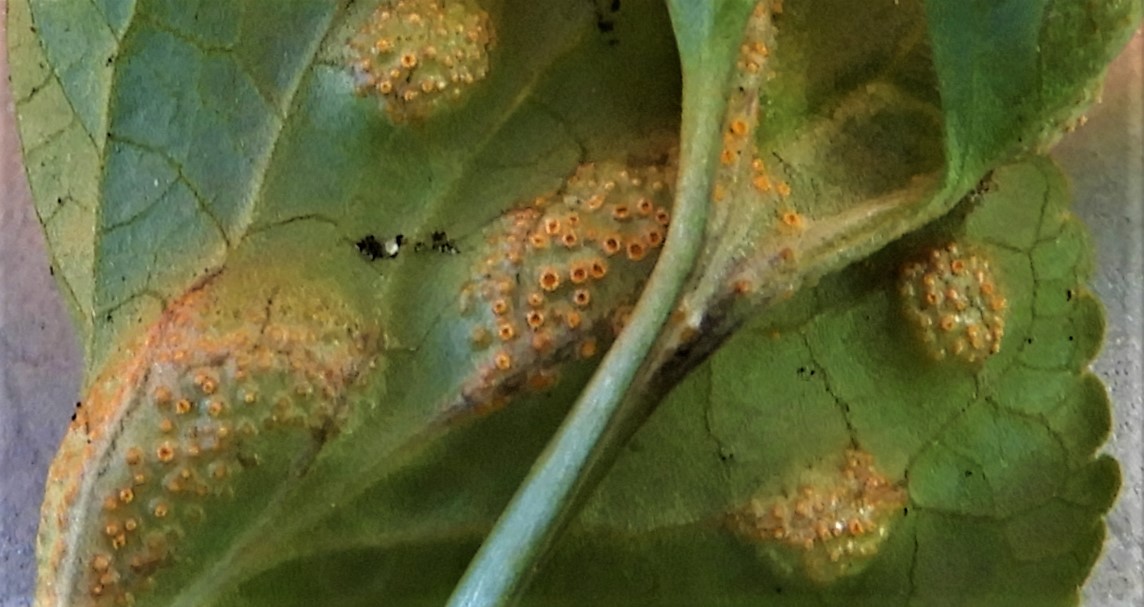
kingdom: Fungi
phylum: Basidiomycota
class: Pucciniomycetes
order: Pucciniales
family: Pucciniaceae
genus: Puccinia
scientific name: Puccinia violae
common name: viol-tvecellerust
